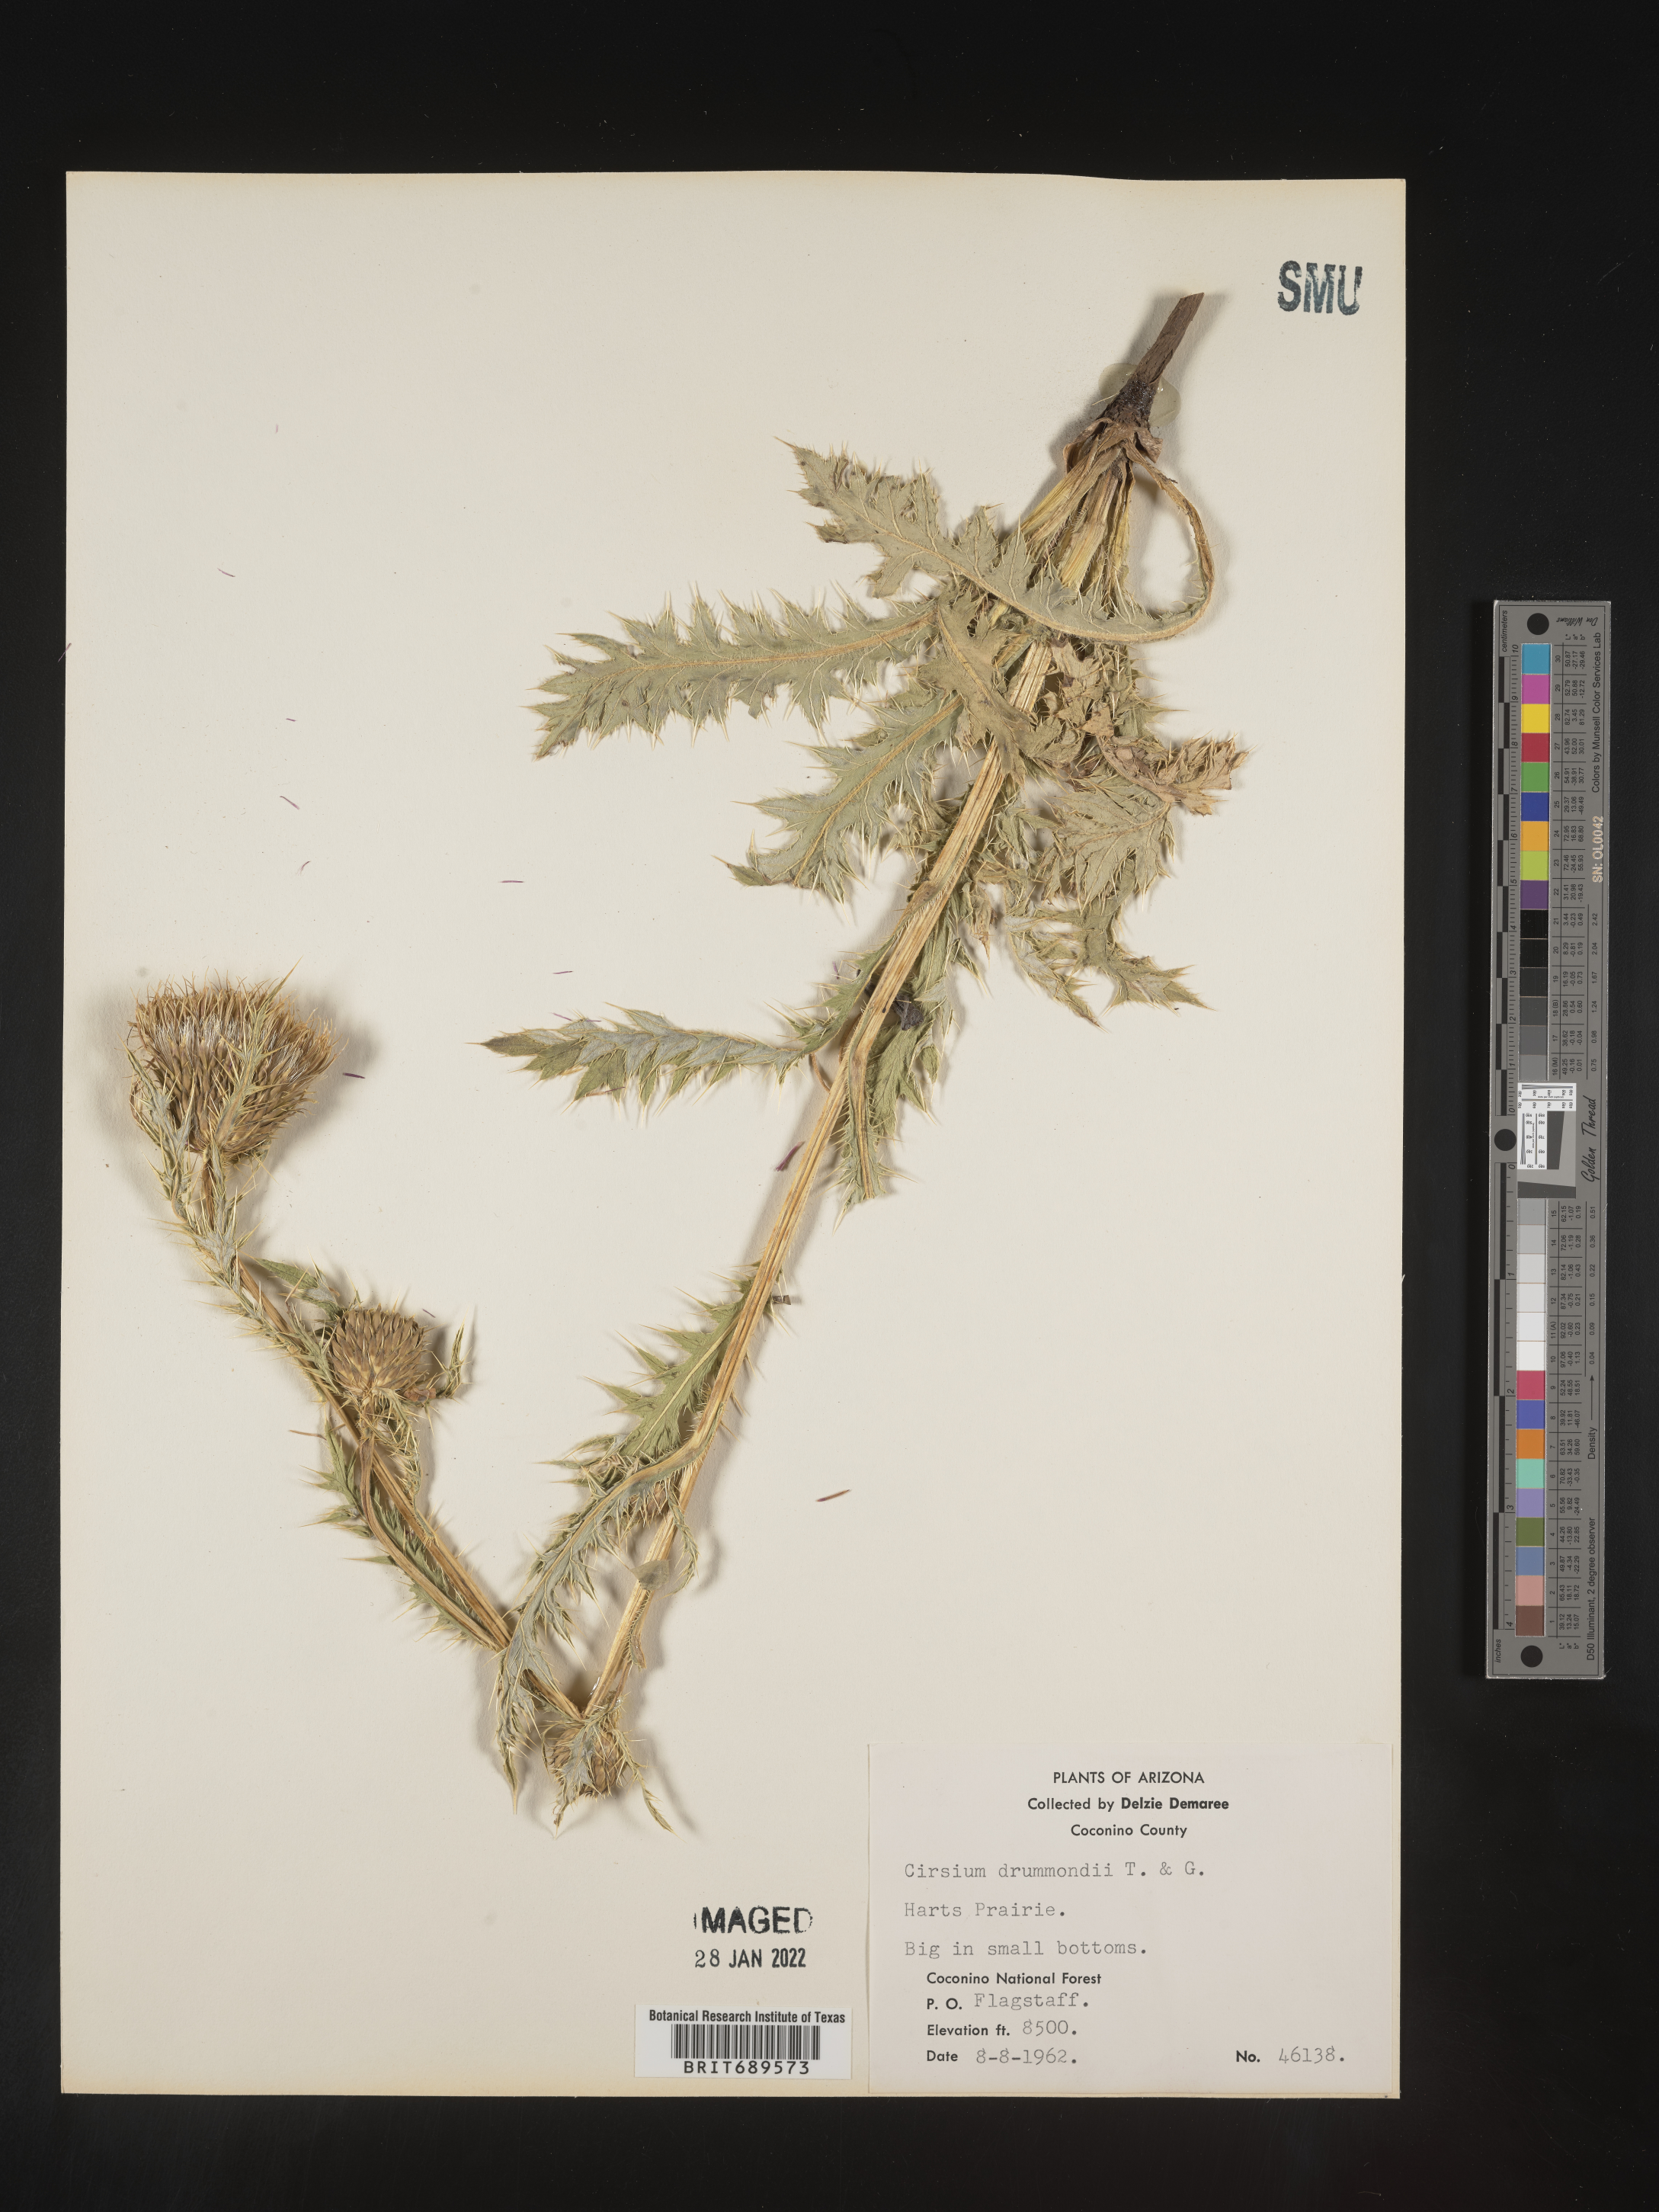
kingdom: Plantae
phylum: Tracheophyta
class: Magnoliopsida
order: Asterales
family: Asteraceae
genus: Cirsium
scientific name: Cirsium drummondii
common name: Drummond's thistle
